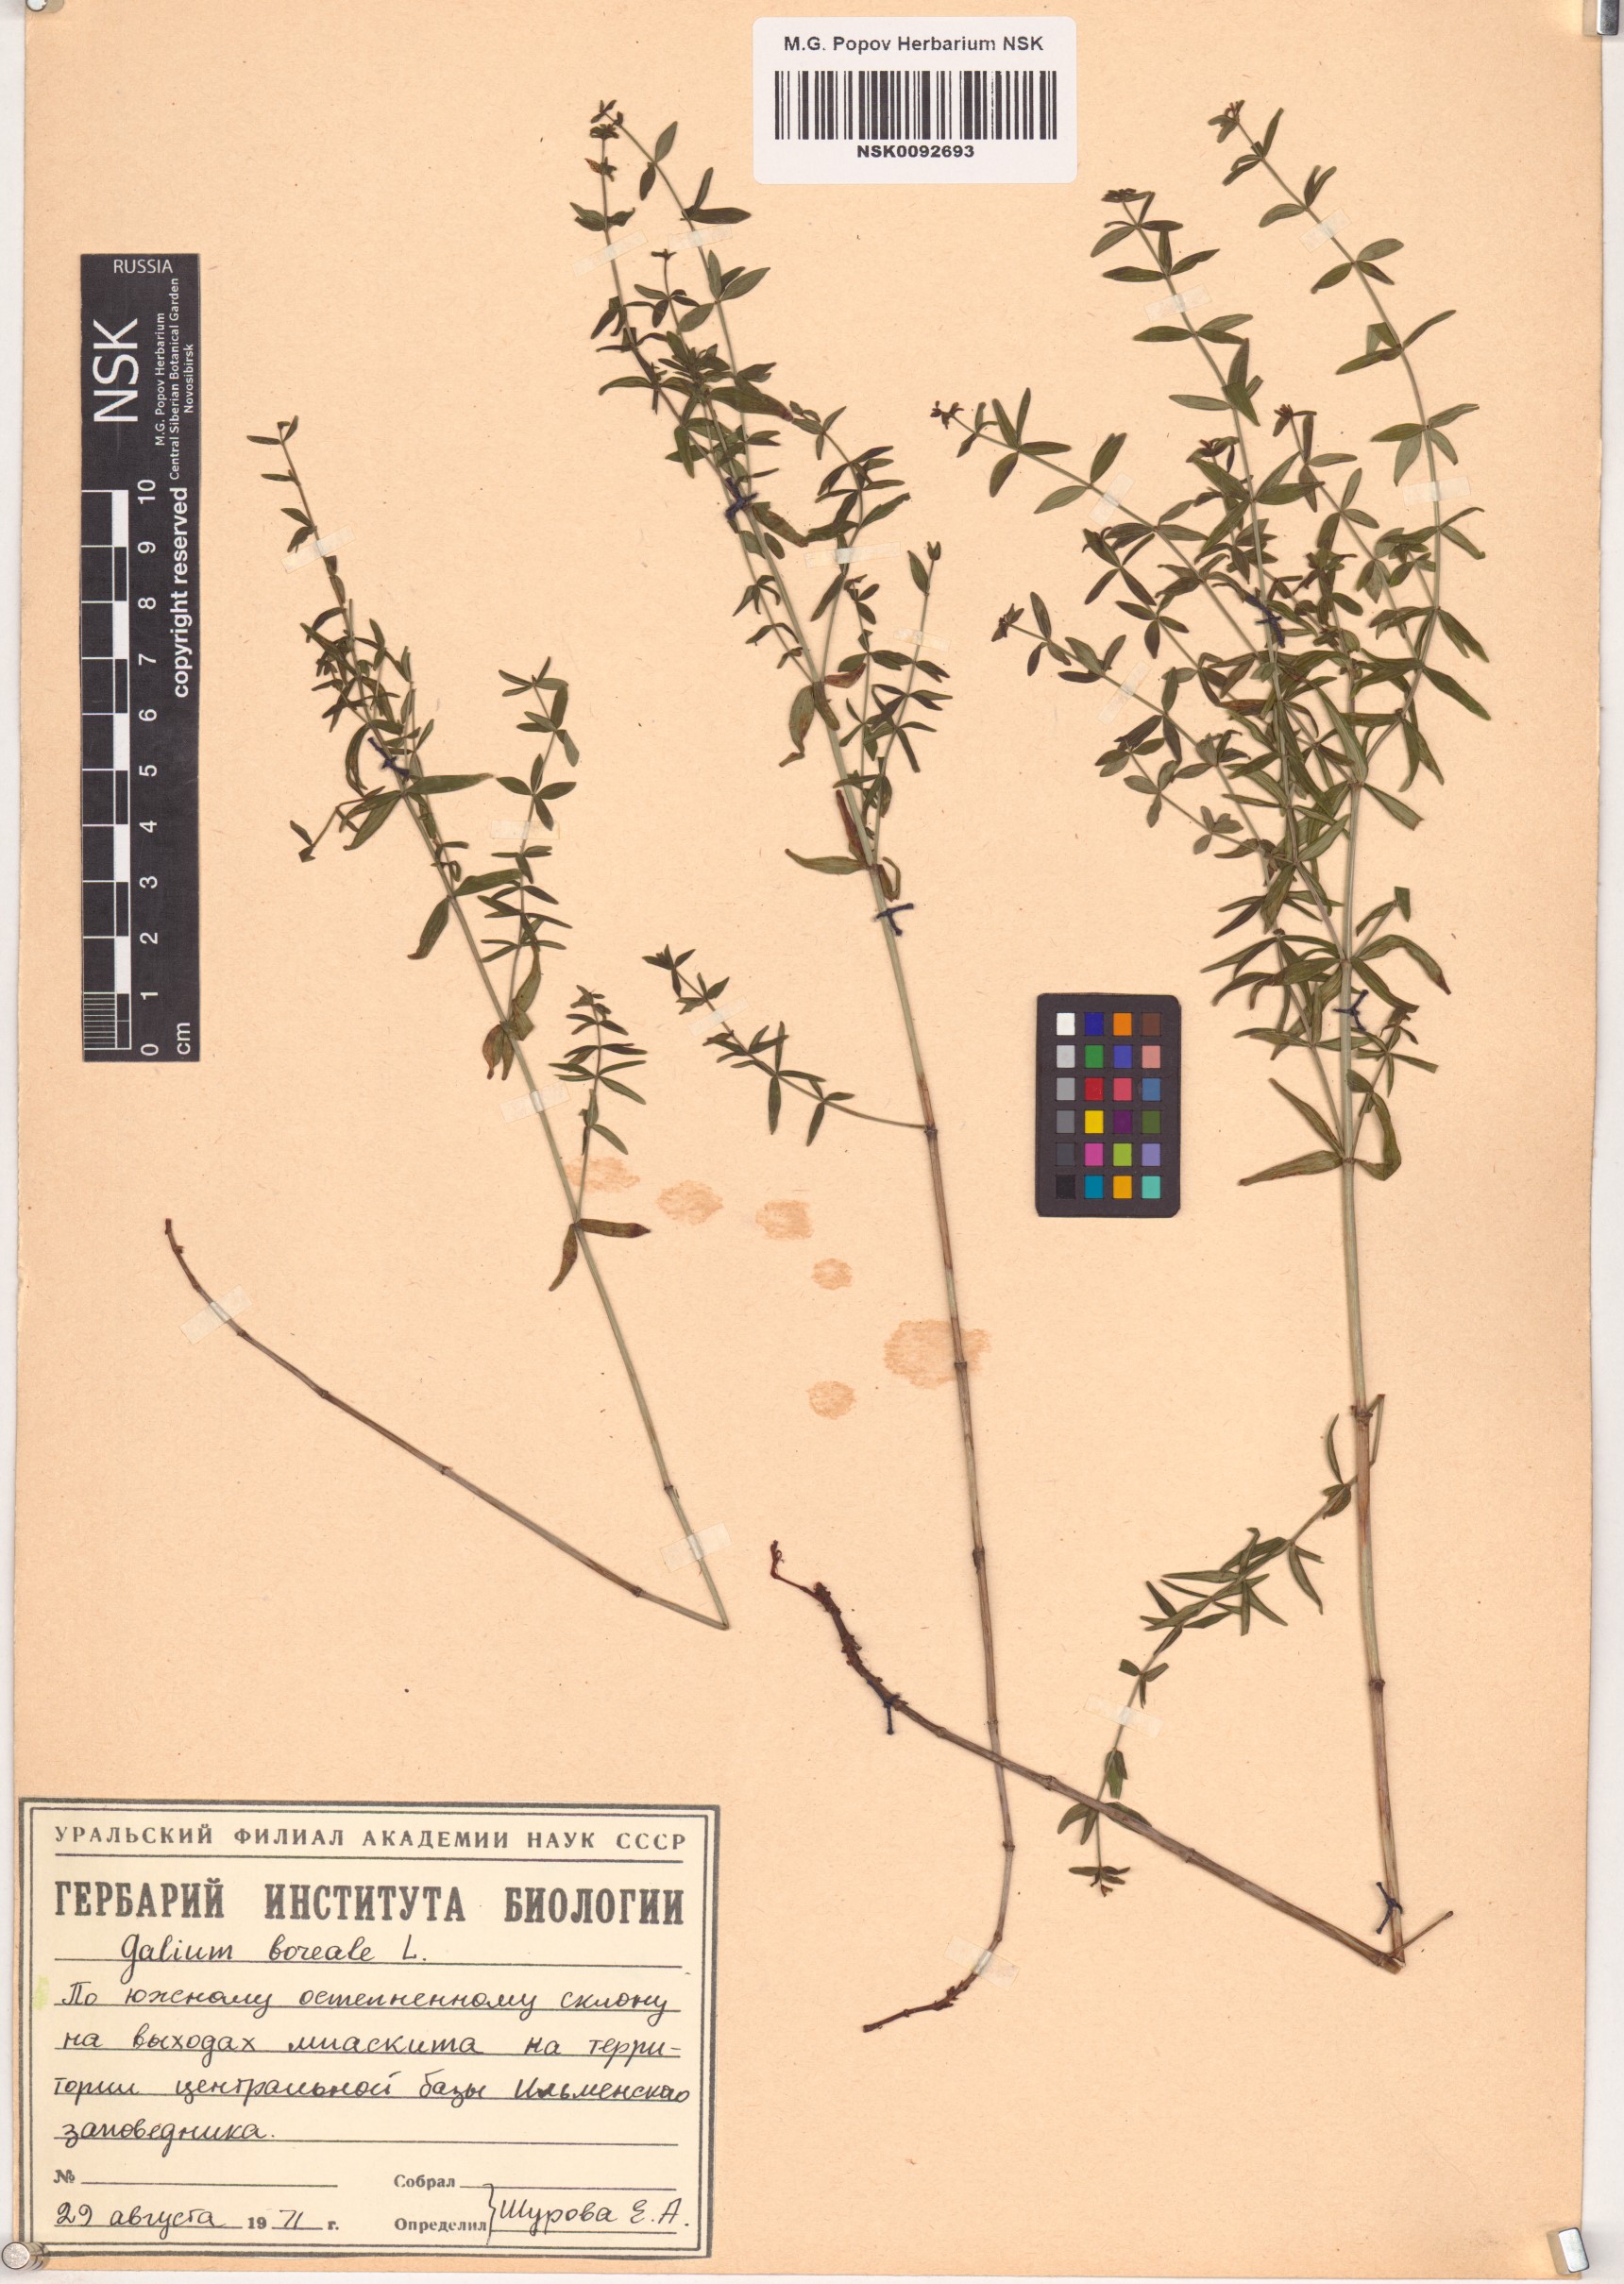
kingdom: Plantae
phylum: Tracheophyta
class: Magnoliopsida
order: Gentianales
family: Rubiaceae
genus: Galium
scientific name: Galium boreale
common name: Northern bedstraw
